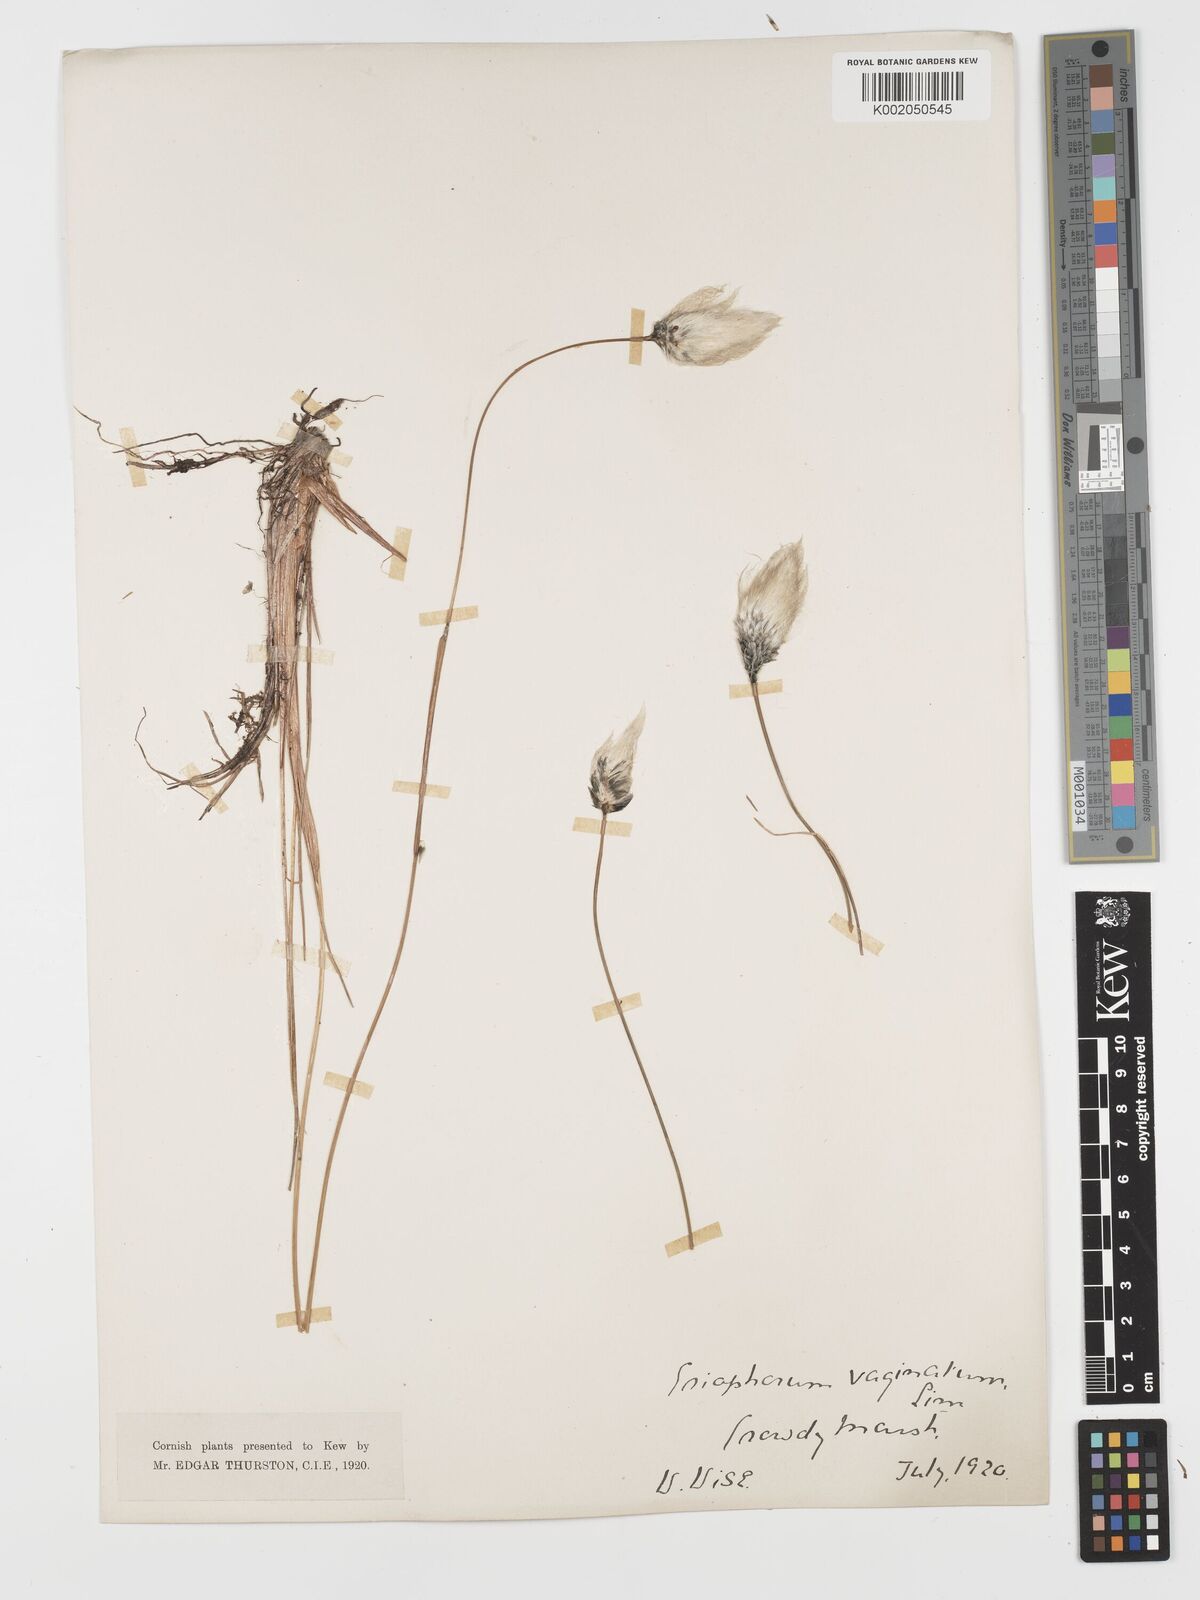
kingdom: Plantae
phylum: Tracheophyta
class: Liliopsida
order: Poales
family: Cyperaceae
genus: Eriophorum
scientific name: Eriophorum vaginatum
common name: Hare's-tail cottongrass
